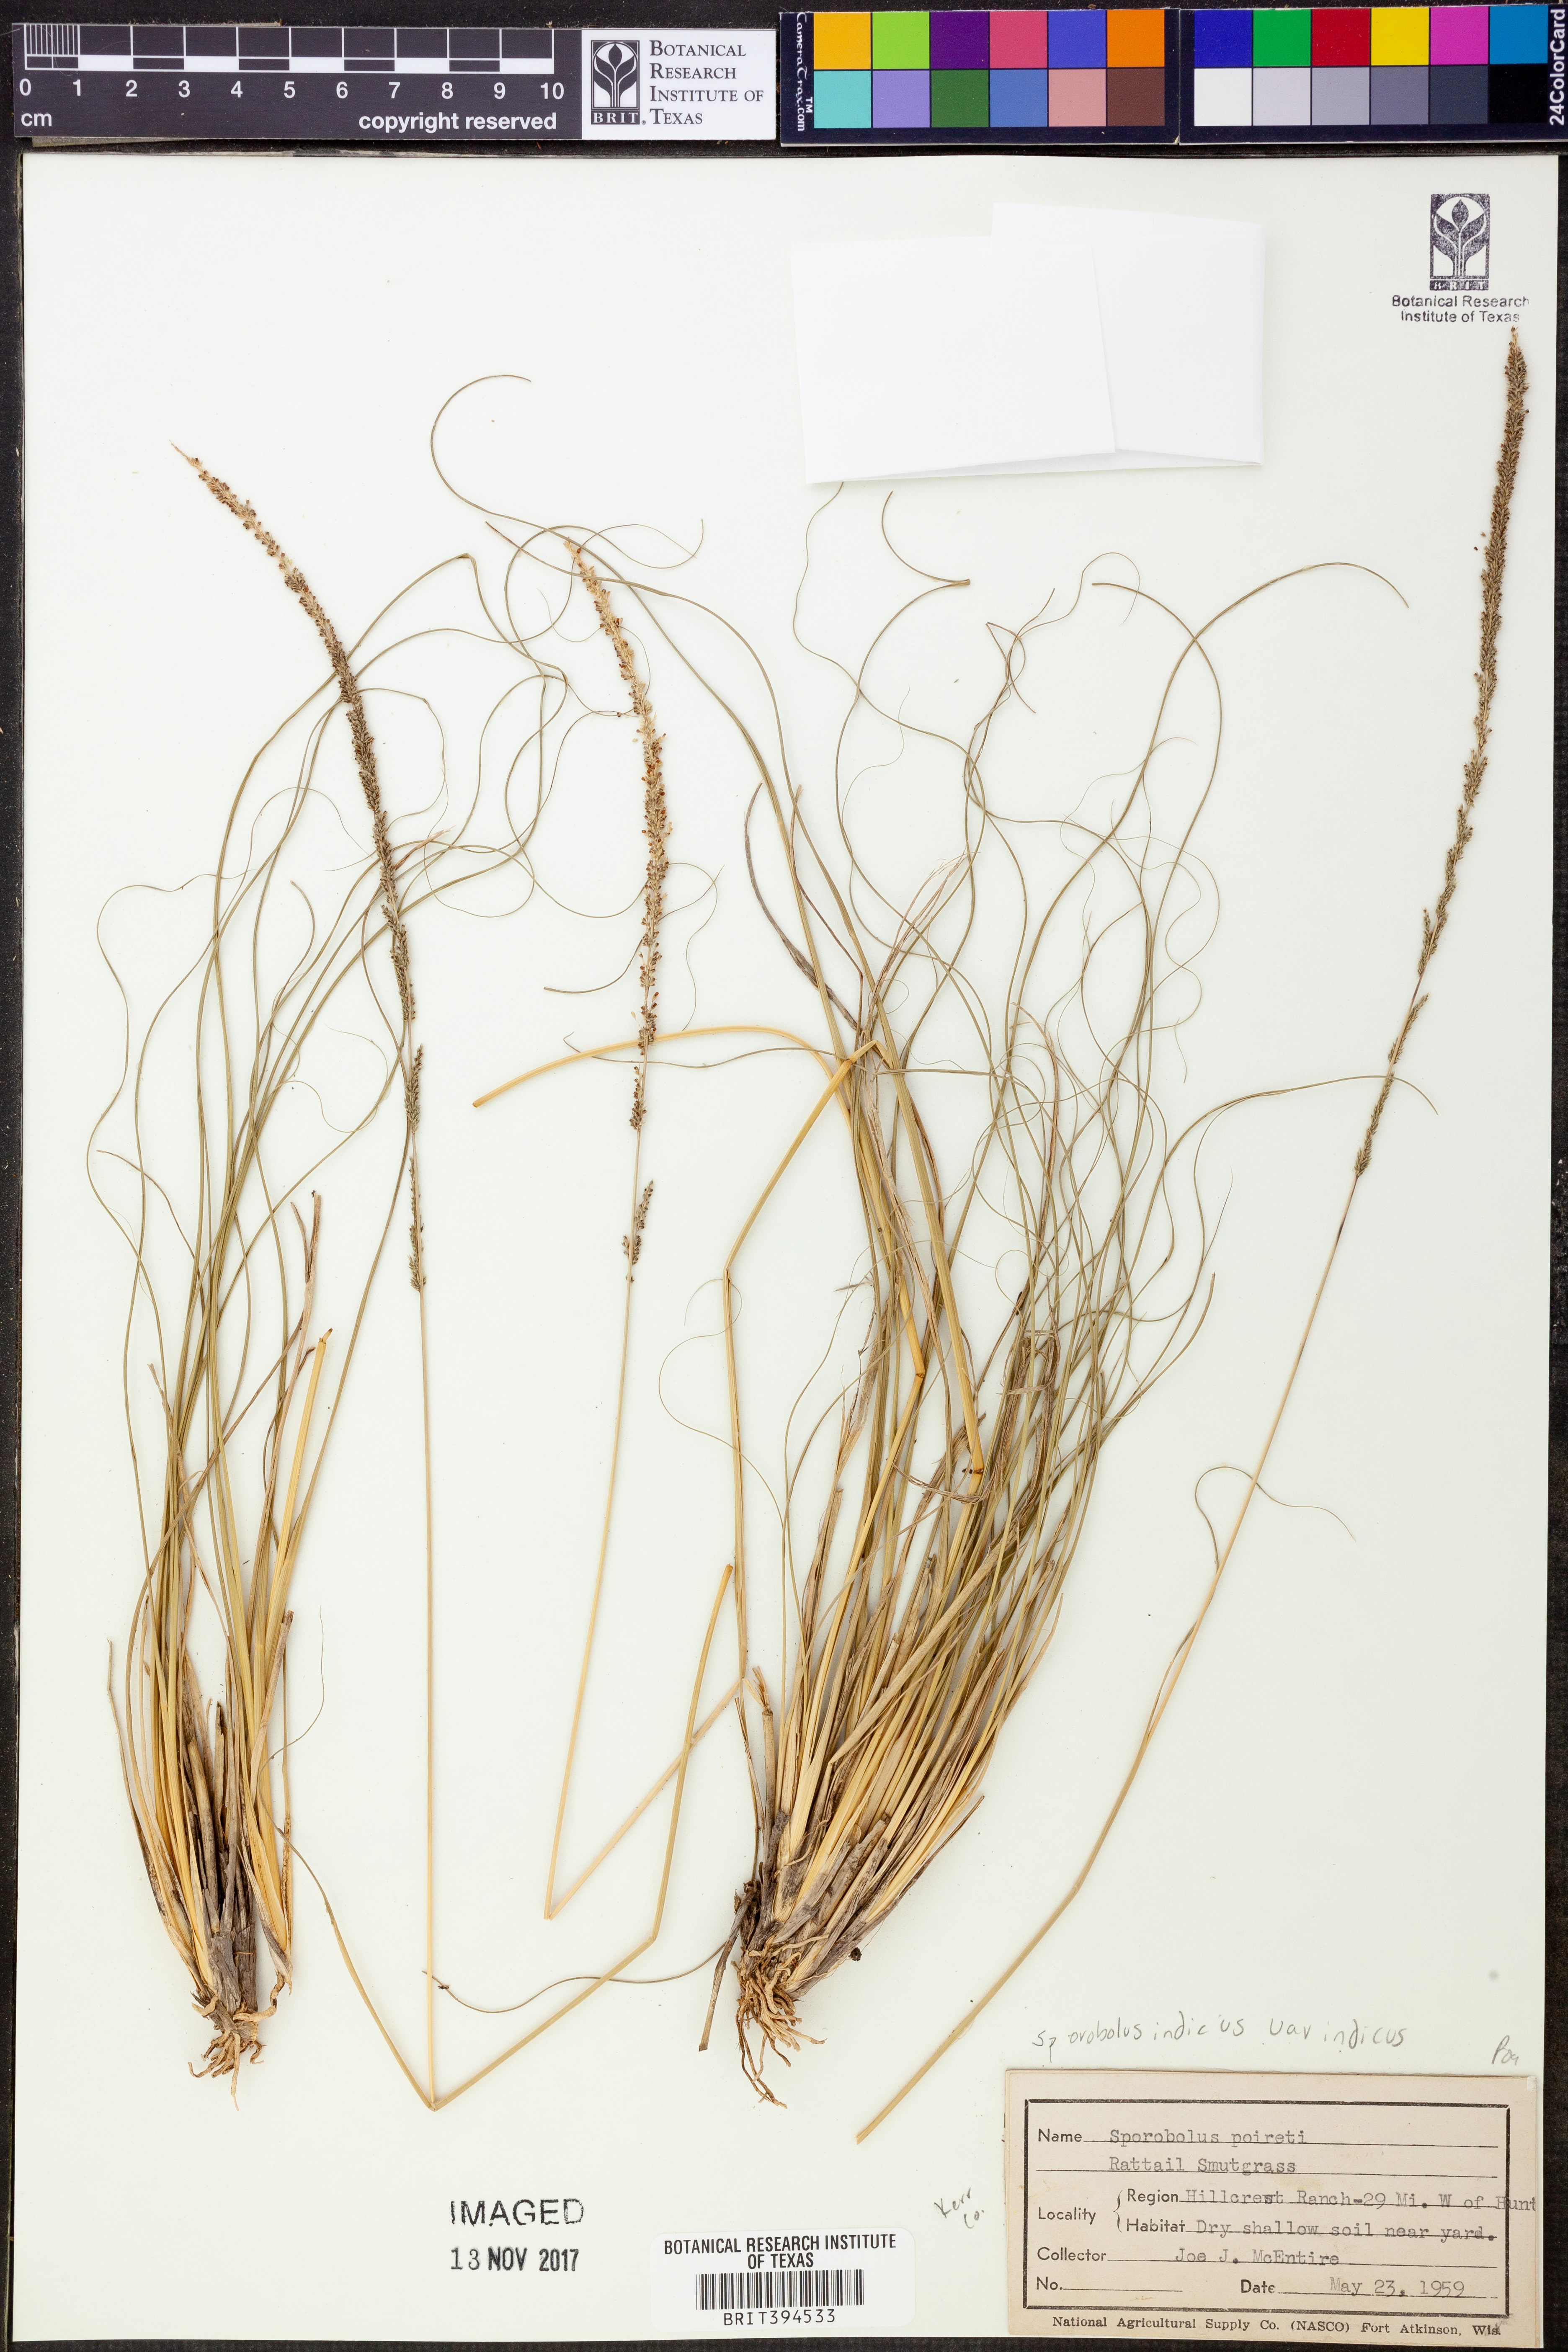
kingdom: Plantae
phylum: Tracheophyta
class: Liliopsida
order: Poales
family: Poaceae
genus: Sporobolus
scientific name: Sporobolus indicus
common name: Smut grass
